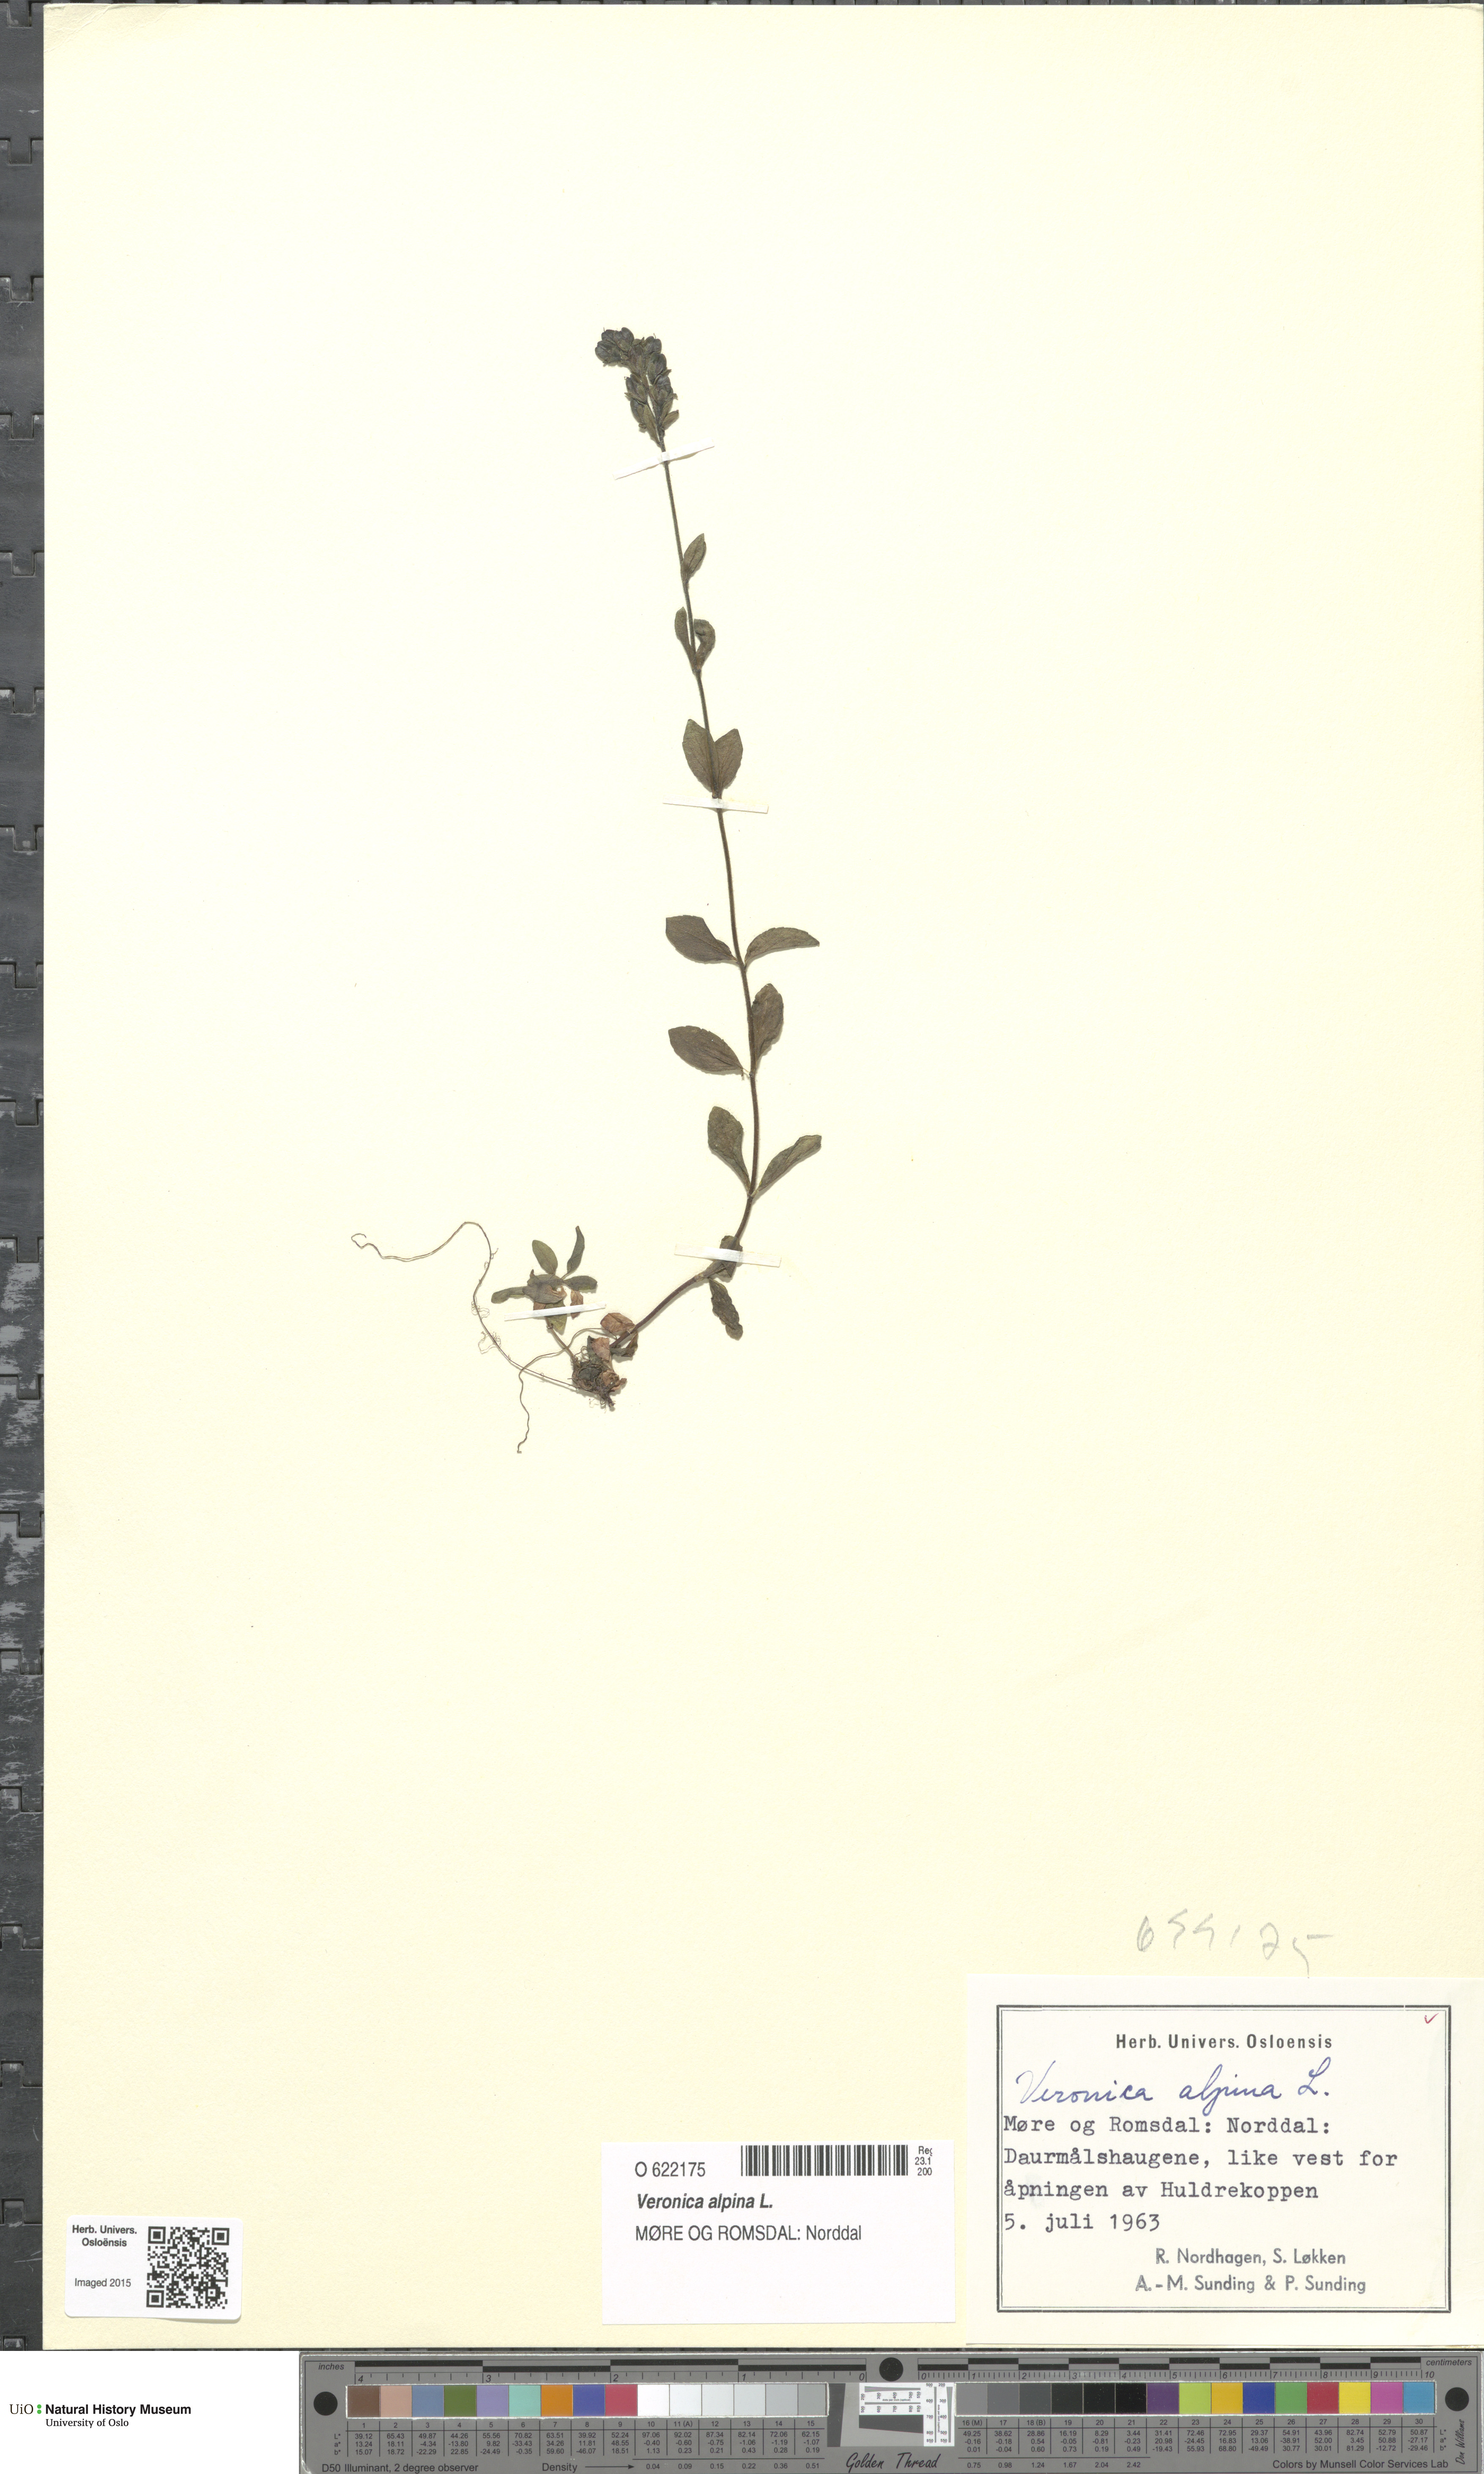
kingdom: Plantae
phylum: Tracheophyta
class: Magnoliopsida
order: Lamiales
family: Plantaginaceae
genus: Veronica
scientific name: Veronica alpina
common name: Alpine speedwell
